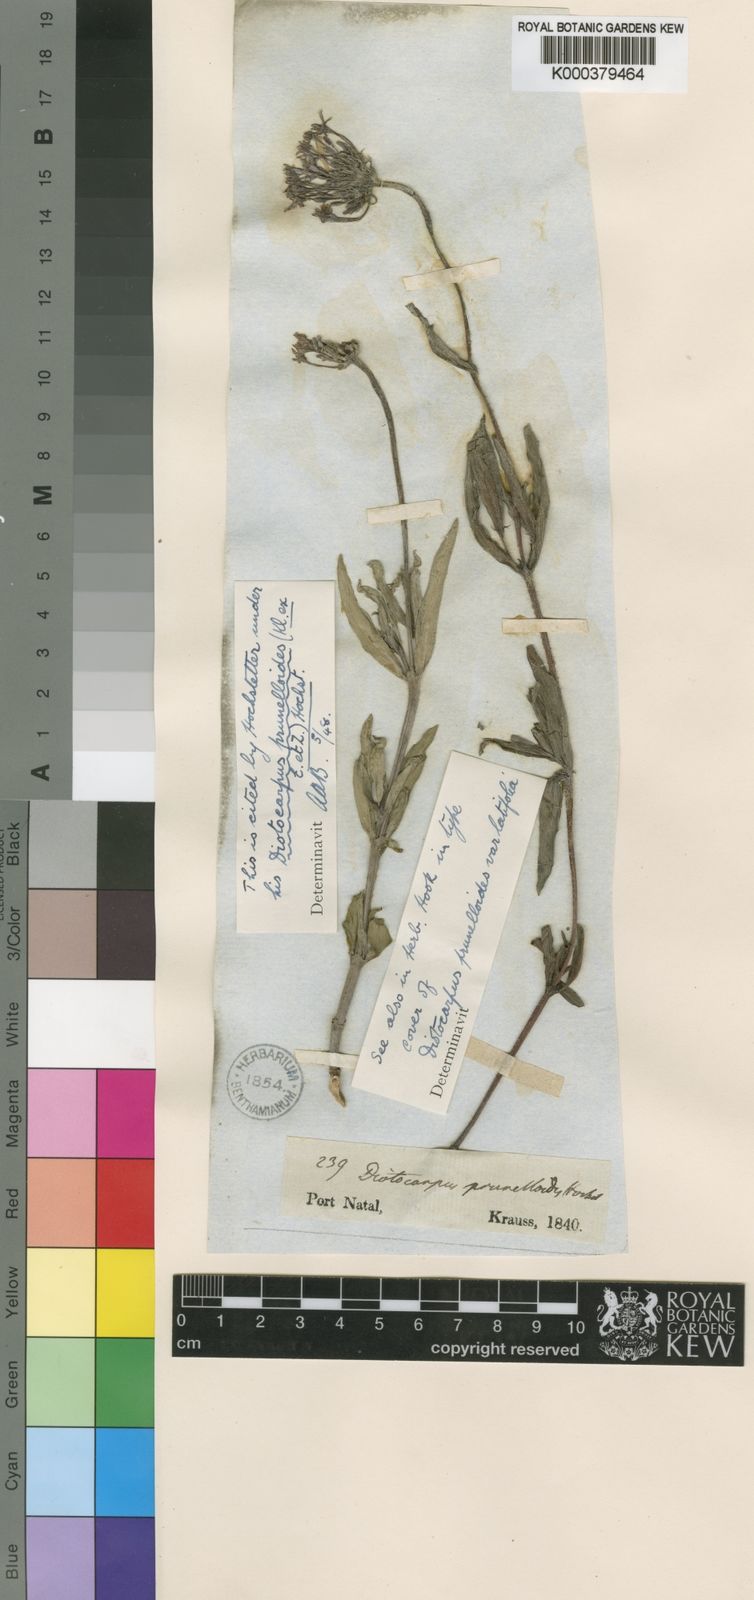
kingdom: Plantae
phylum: Tracheophyta
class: Magnoliopsida
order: Gentianales
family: Rubiaceae
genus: Pentanisia
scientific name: Pentanisia prunelloides
